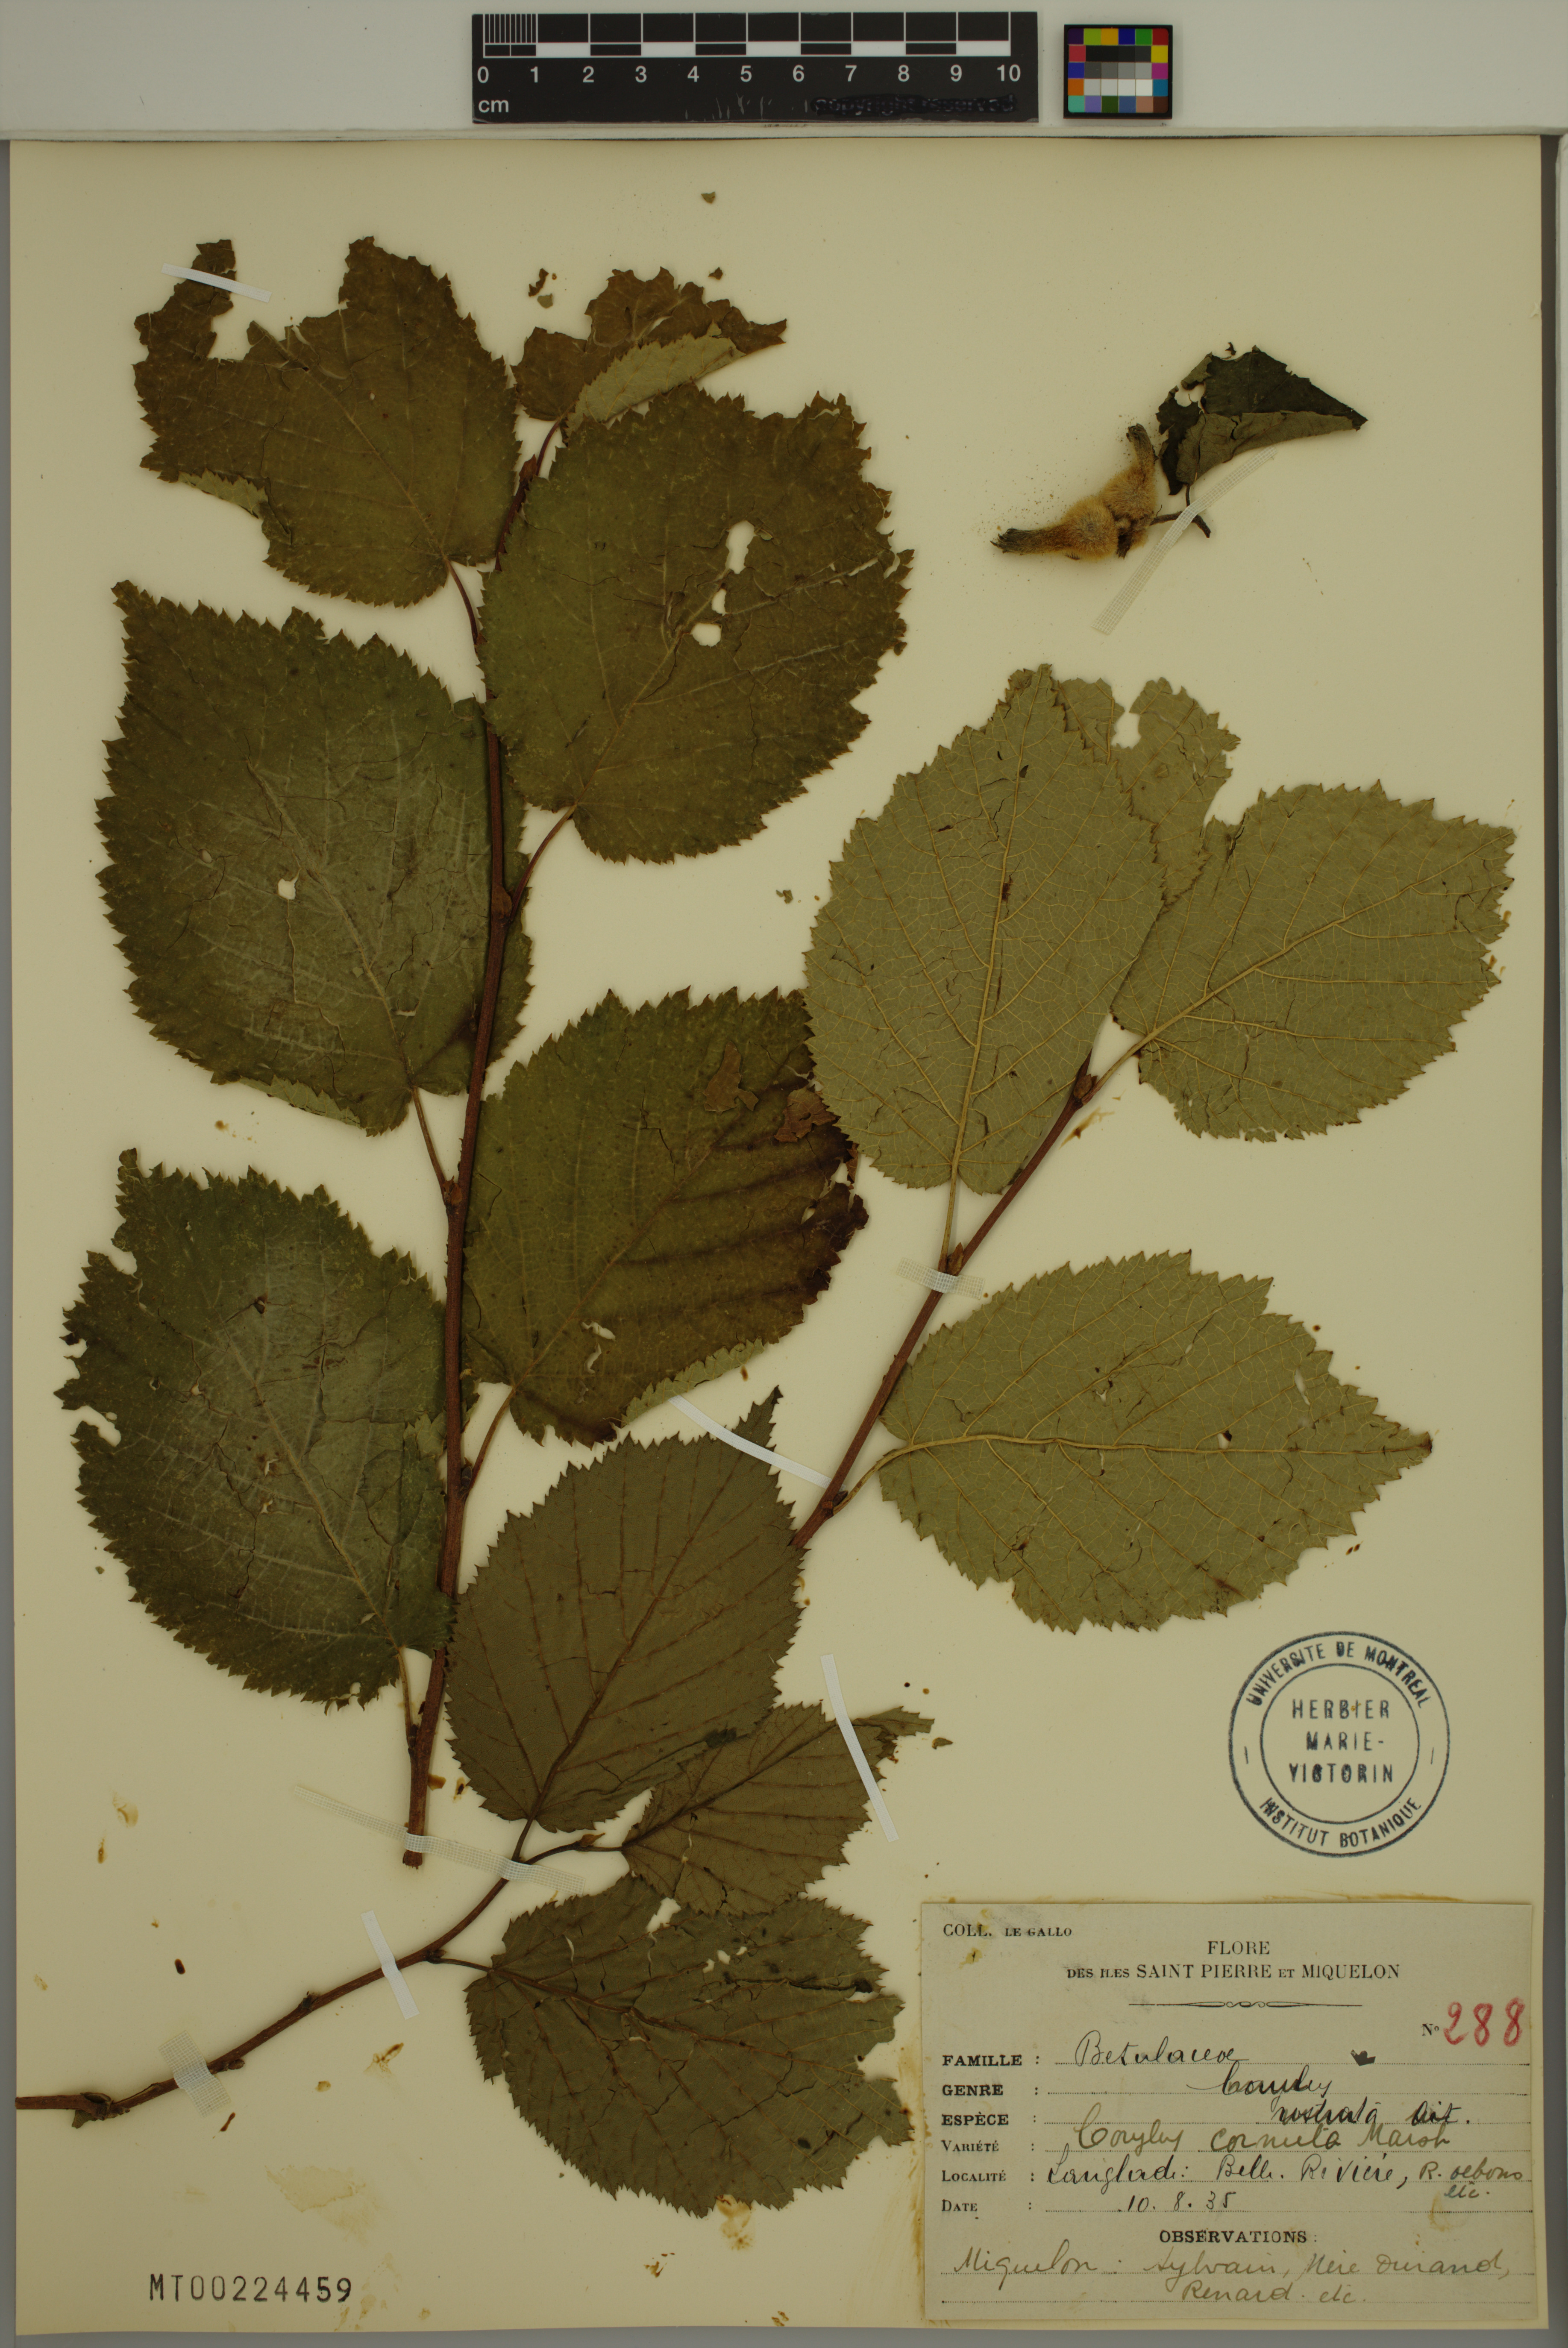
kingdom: Plantae
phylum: Tracheophyta
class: Magnoliopsida
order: Fagales
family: Betulaceae
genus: Corylus
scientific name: Corylus cornuta
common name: Beaked hazel
